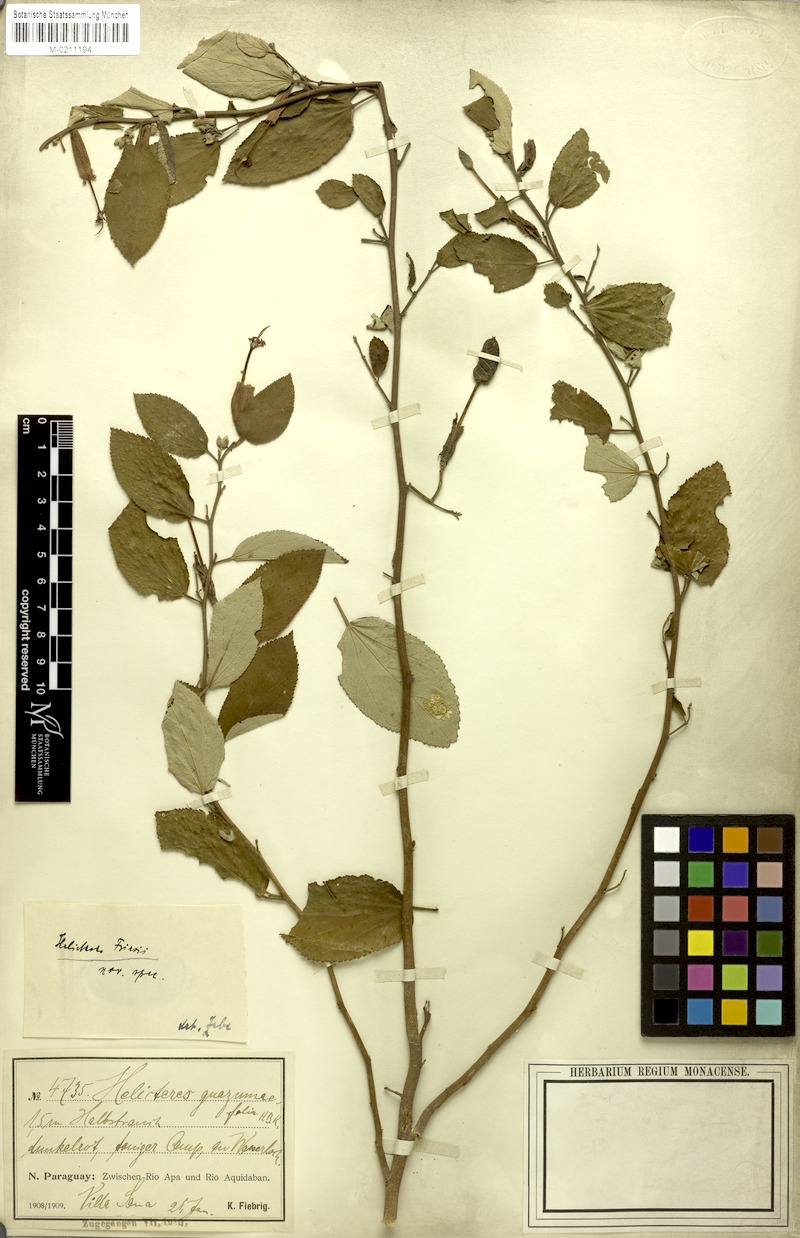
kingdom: Plantae
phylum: Tracheophyta
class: Magnoliopsida
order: Malvales
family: Malvaceae
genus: Helicteres
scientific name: Helicteres gardneriana
